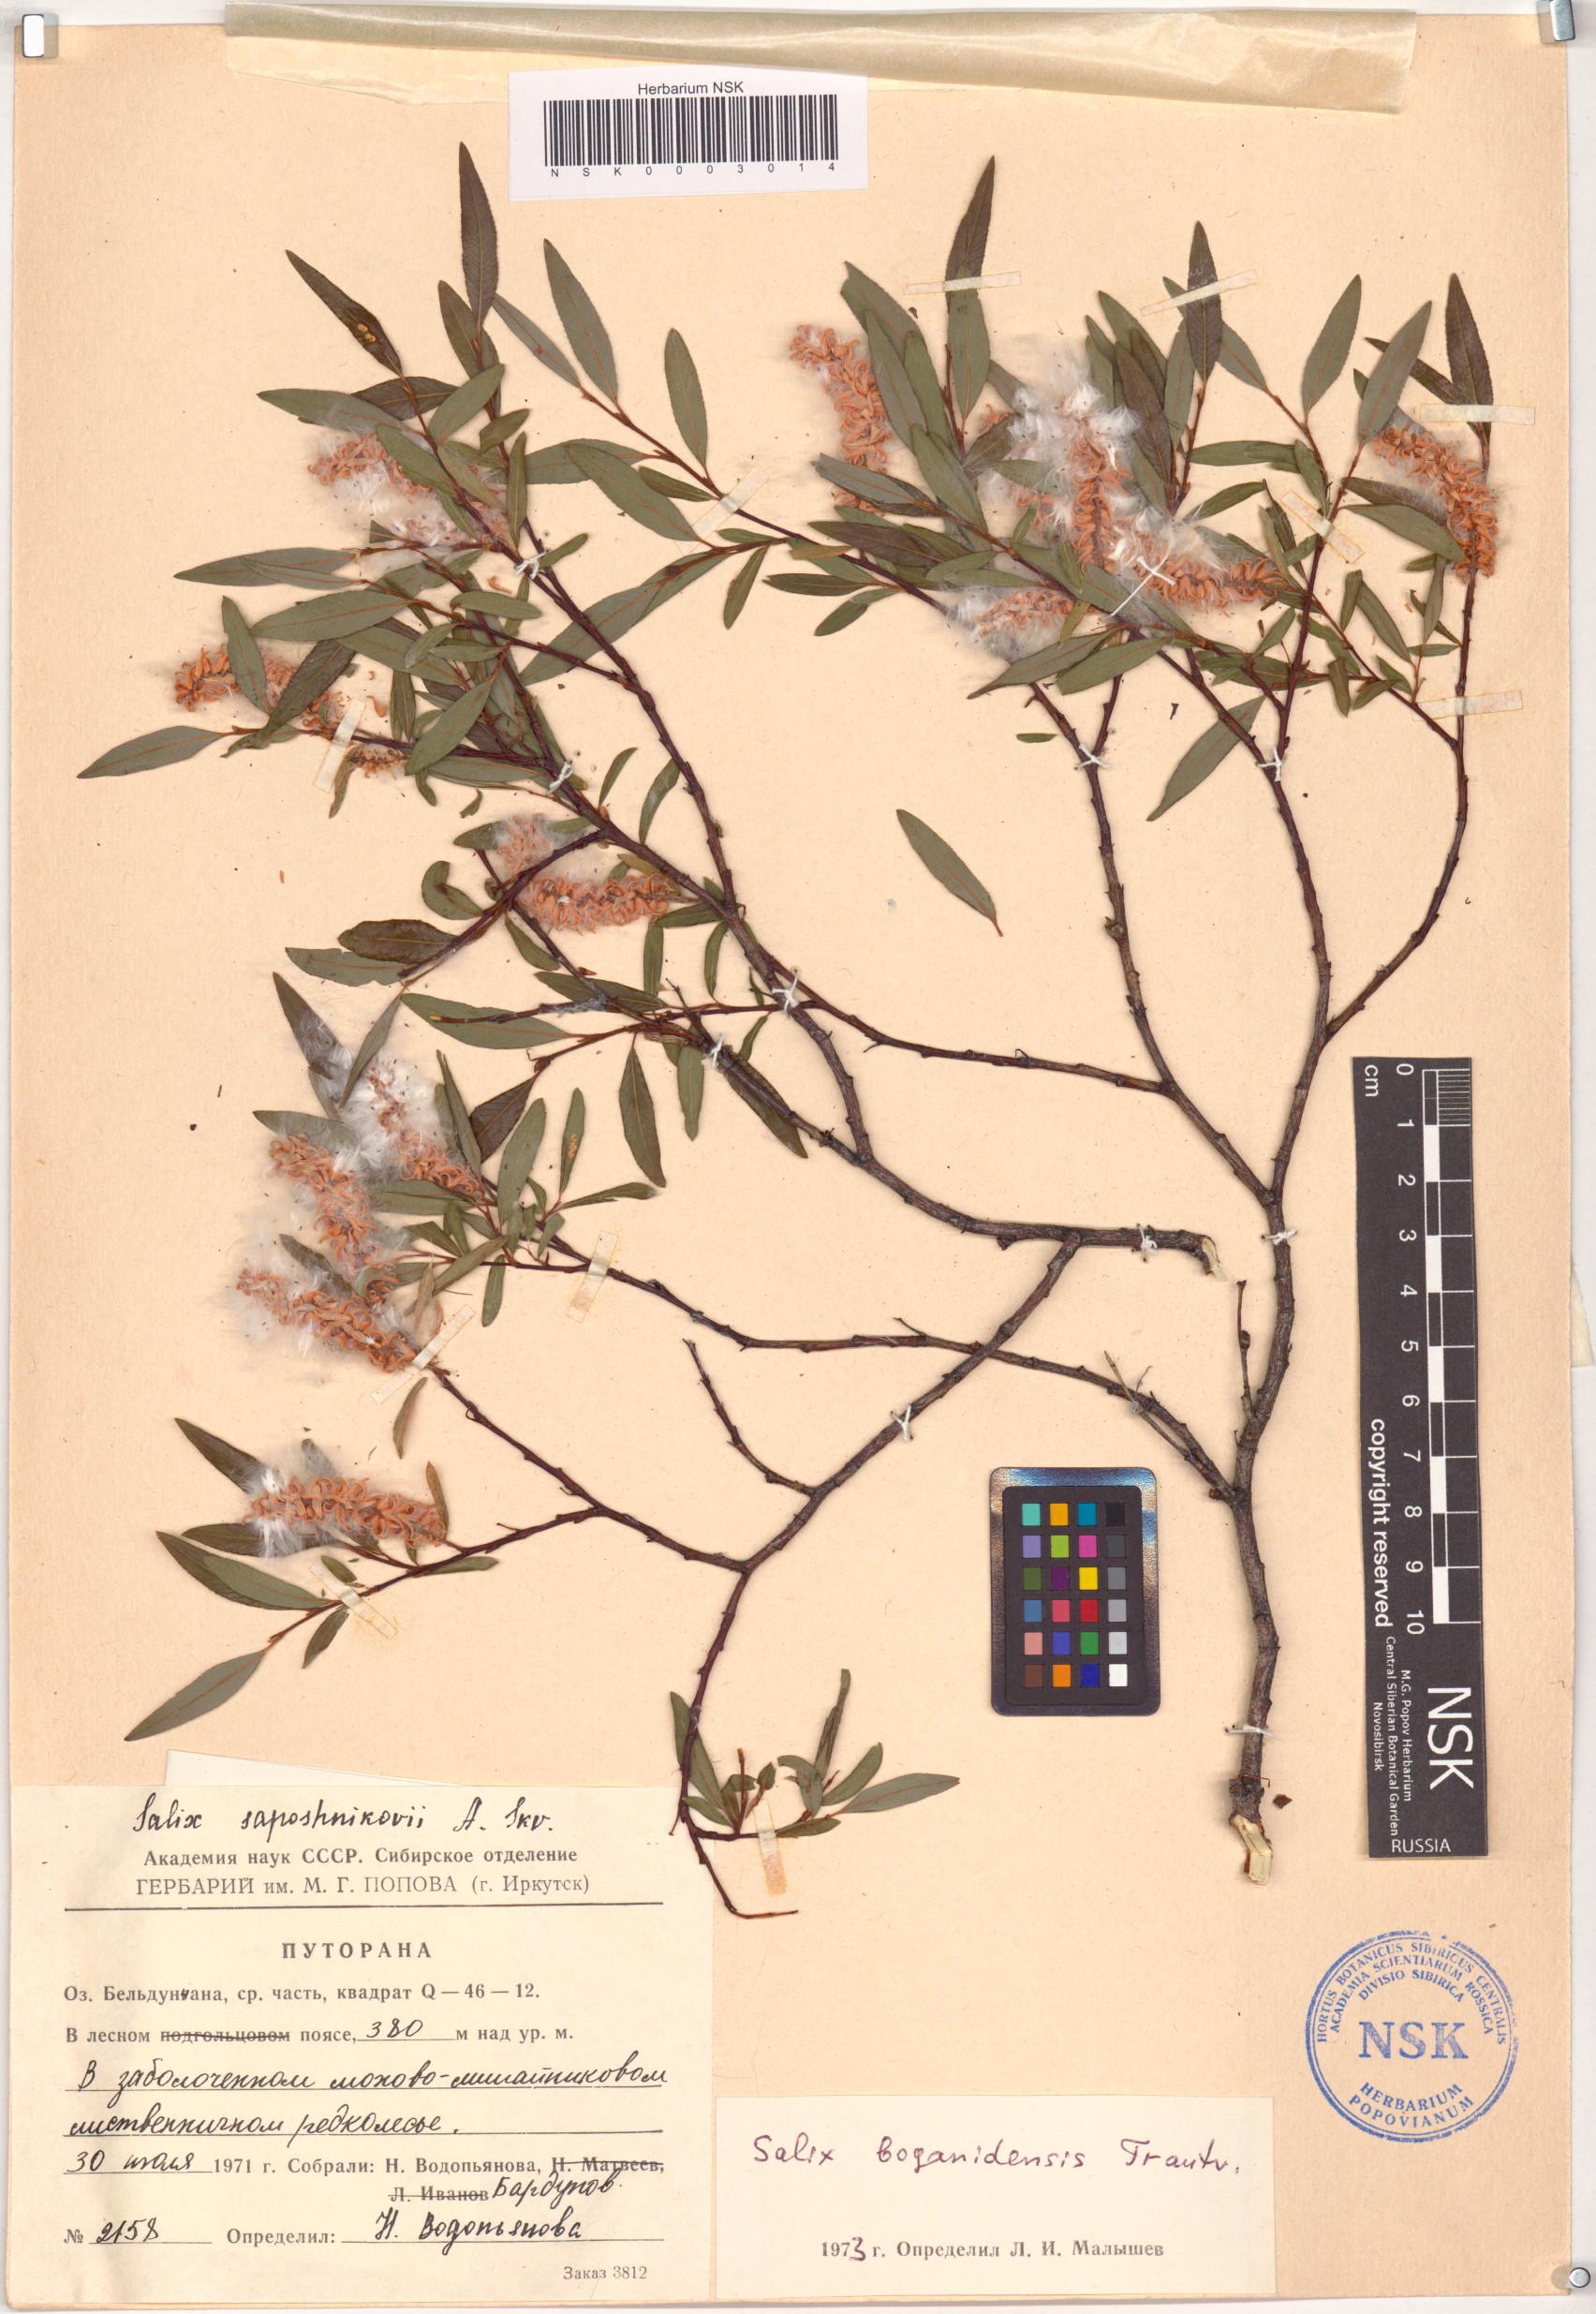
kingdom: Plantae
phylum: Tracheophyta
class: Magnoliopsida
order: Malpighiales
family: Salicaceae
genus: Salix
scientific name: Salix boganidensis
